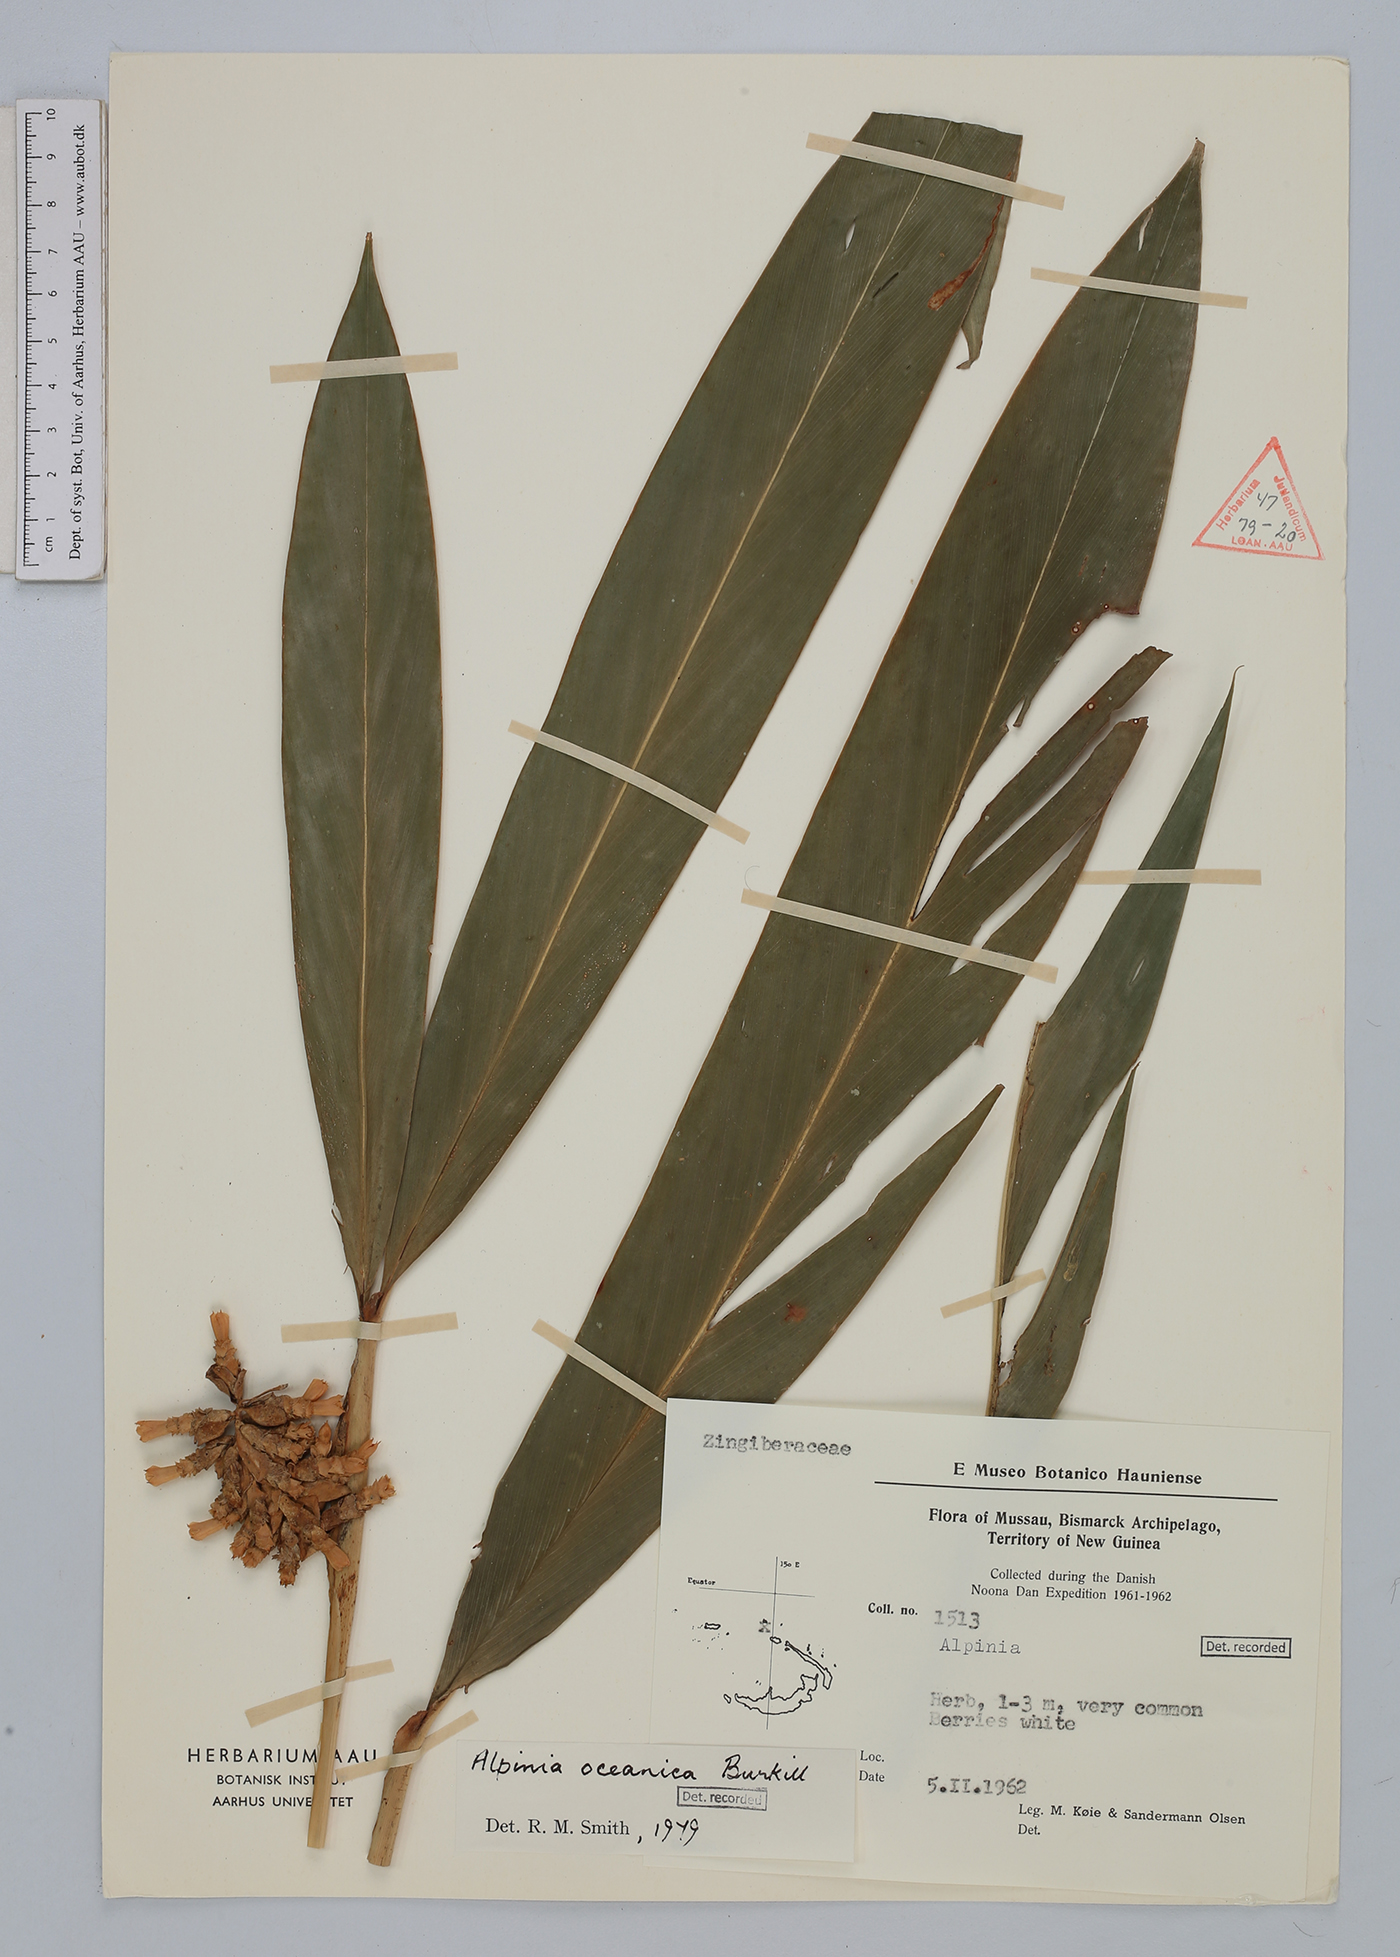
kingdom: Plantae
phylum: Tracheophyta
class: Liliopsida
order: Zingiberales
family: Zingiberaceae
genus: Alpinia
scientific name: Alpinia oceanica
